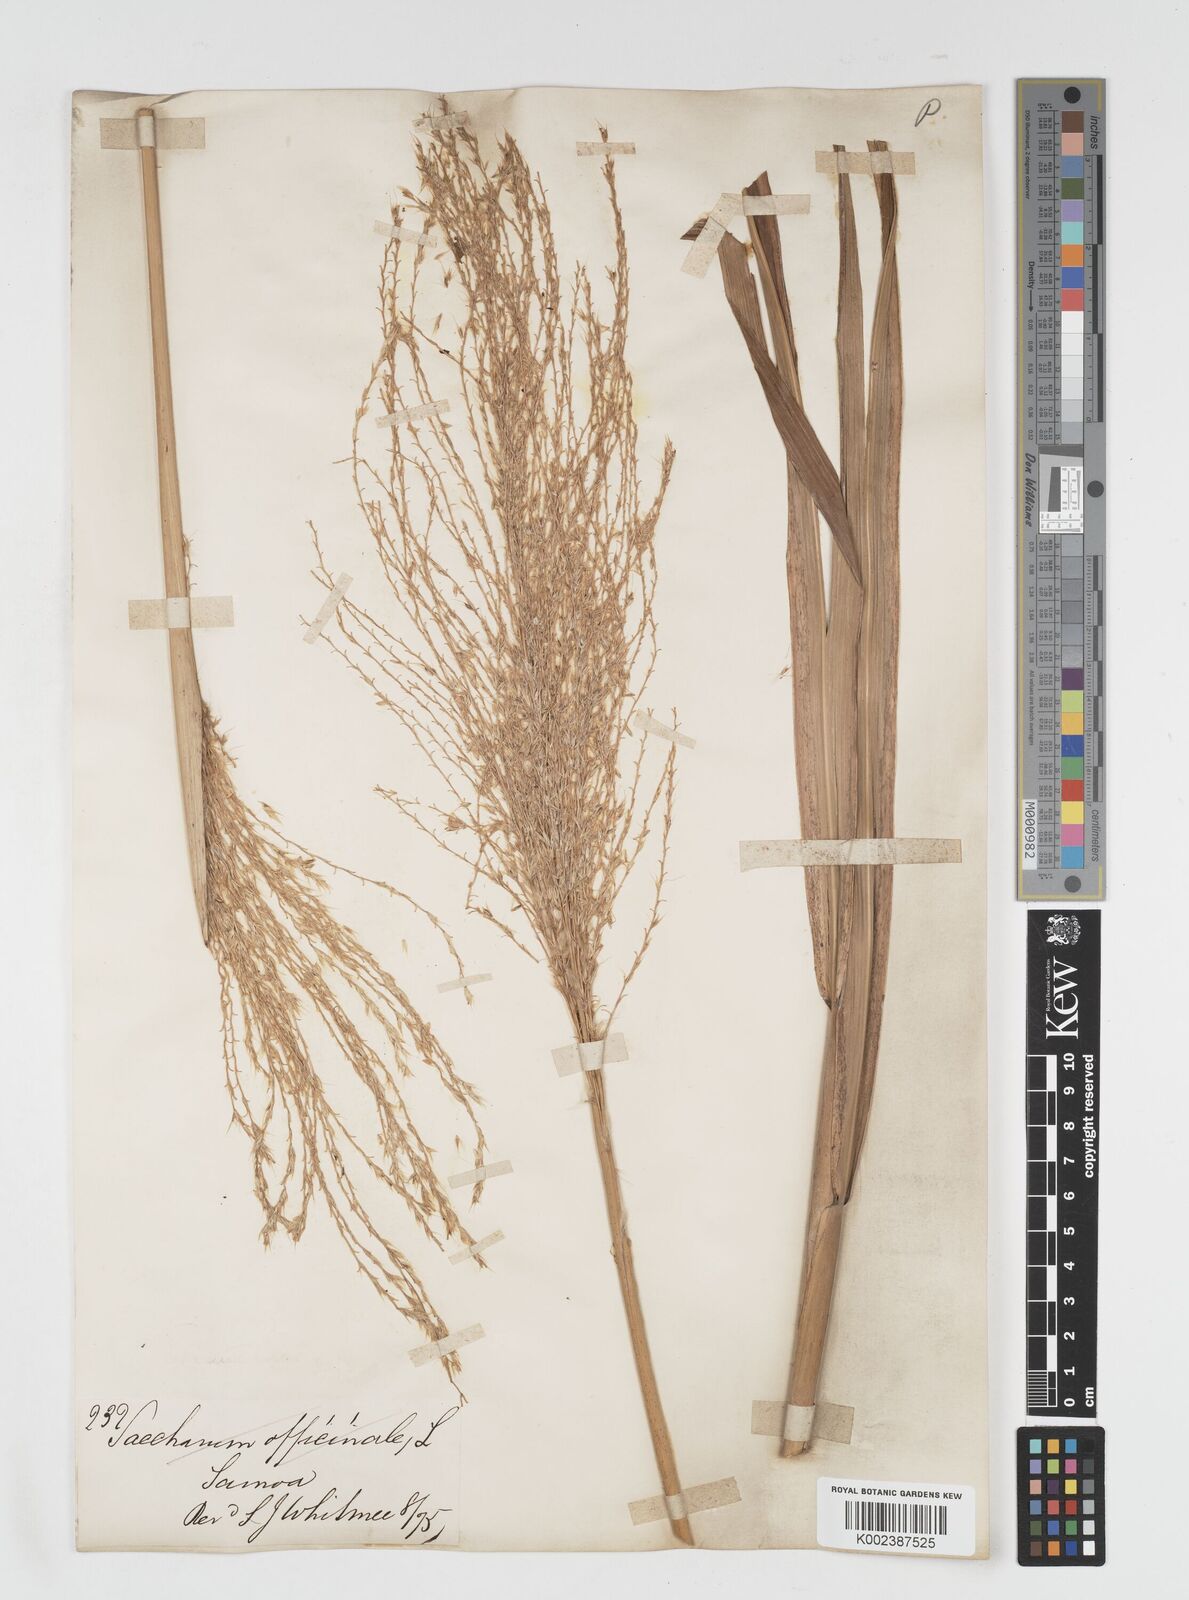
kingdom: Plantae
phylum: Tracheophyta
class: Liliopsida
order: Poales
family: Poaceae
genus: Miscanthus
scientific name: Miscanthus floridulus
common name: Pacific island silvergrass
